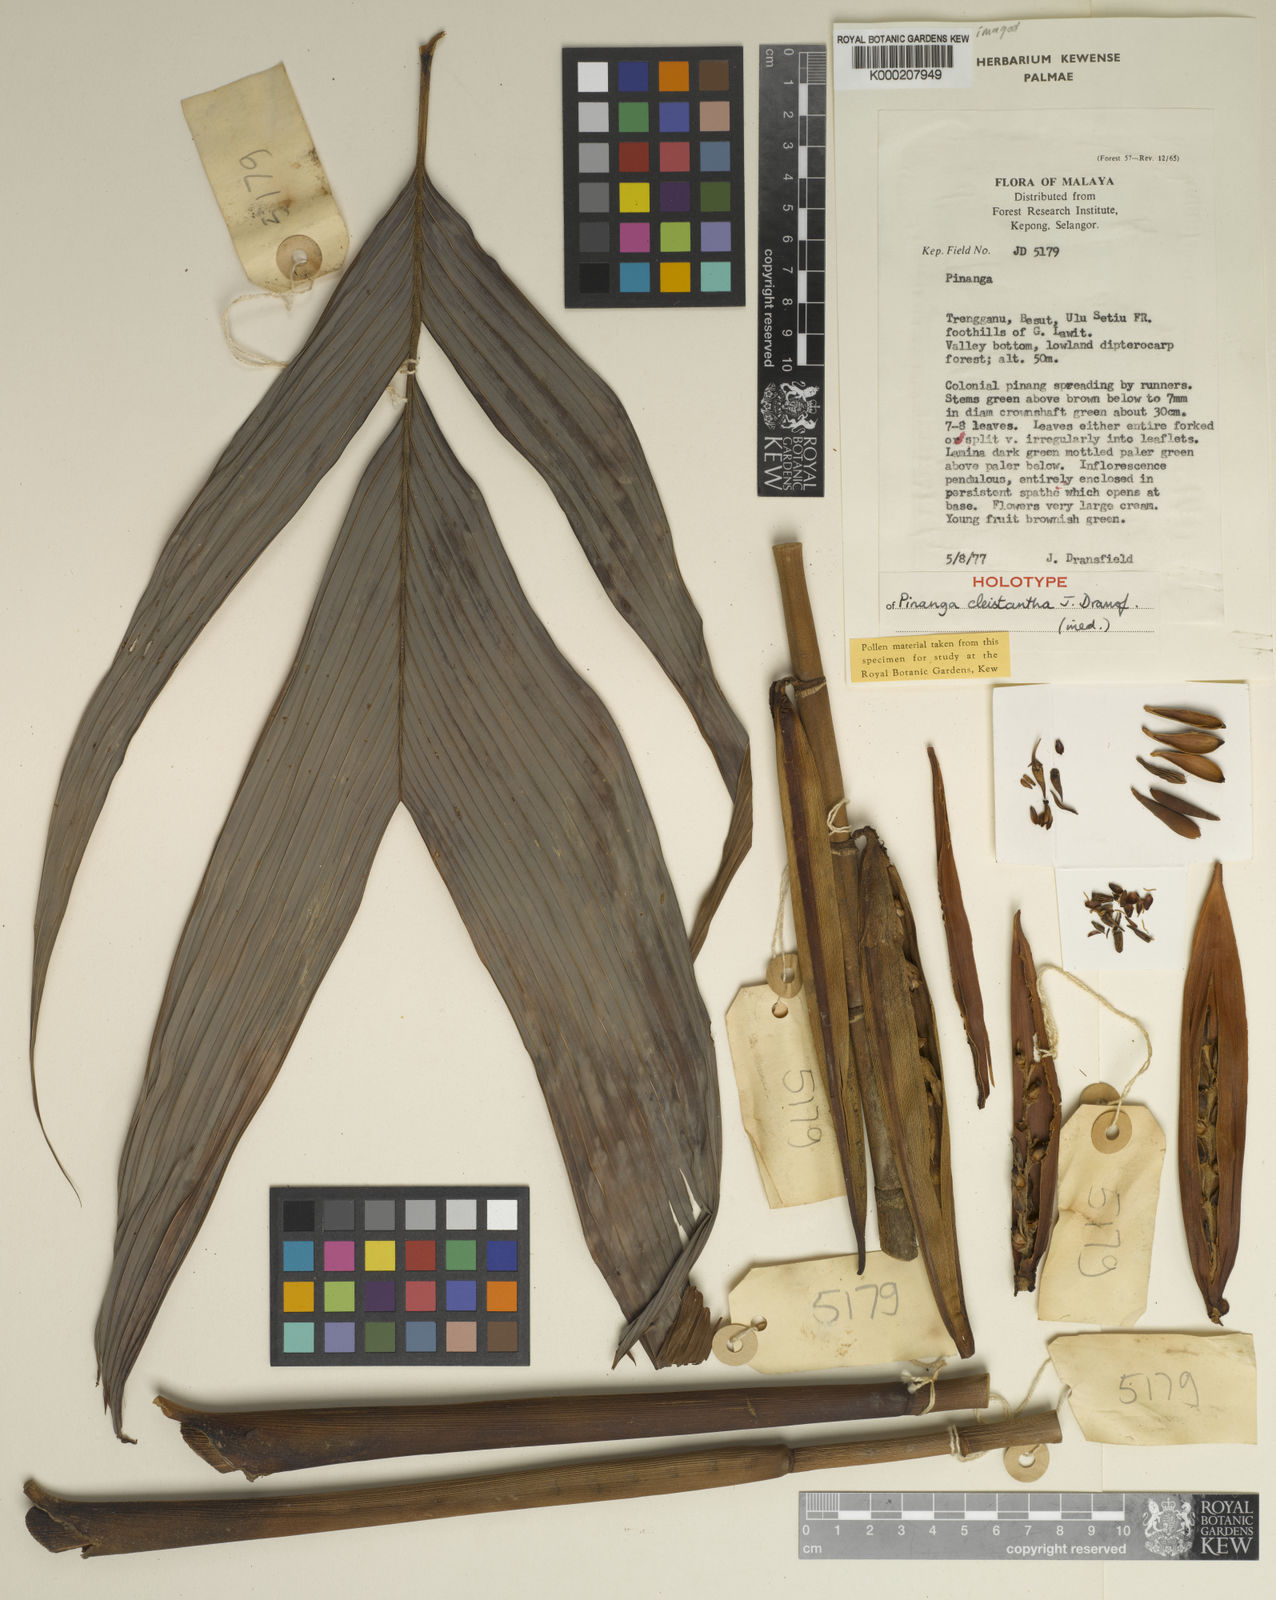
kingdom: Plantae
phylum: Tracheophyta
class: Liliopsida
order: Arecales
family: Arecaceae
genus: Pinanga
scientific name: Pinanga cleistantha
